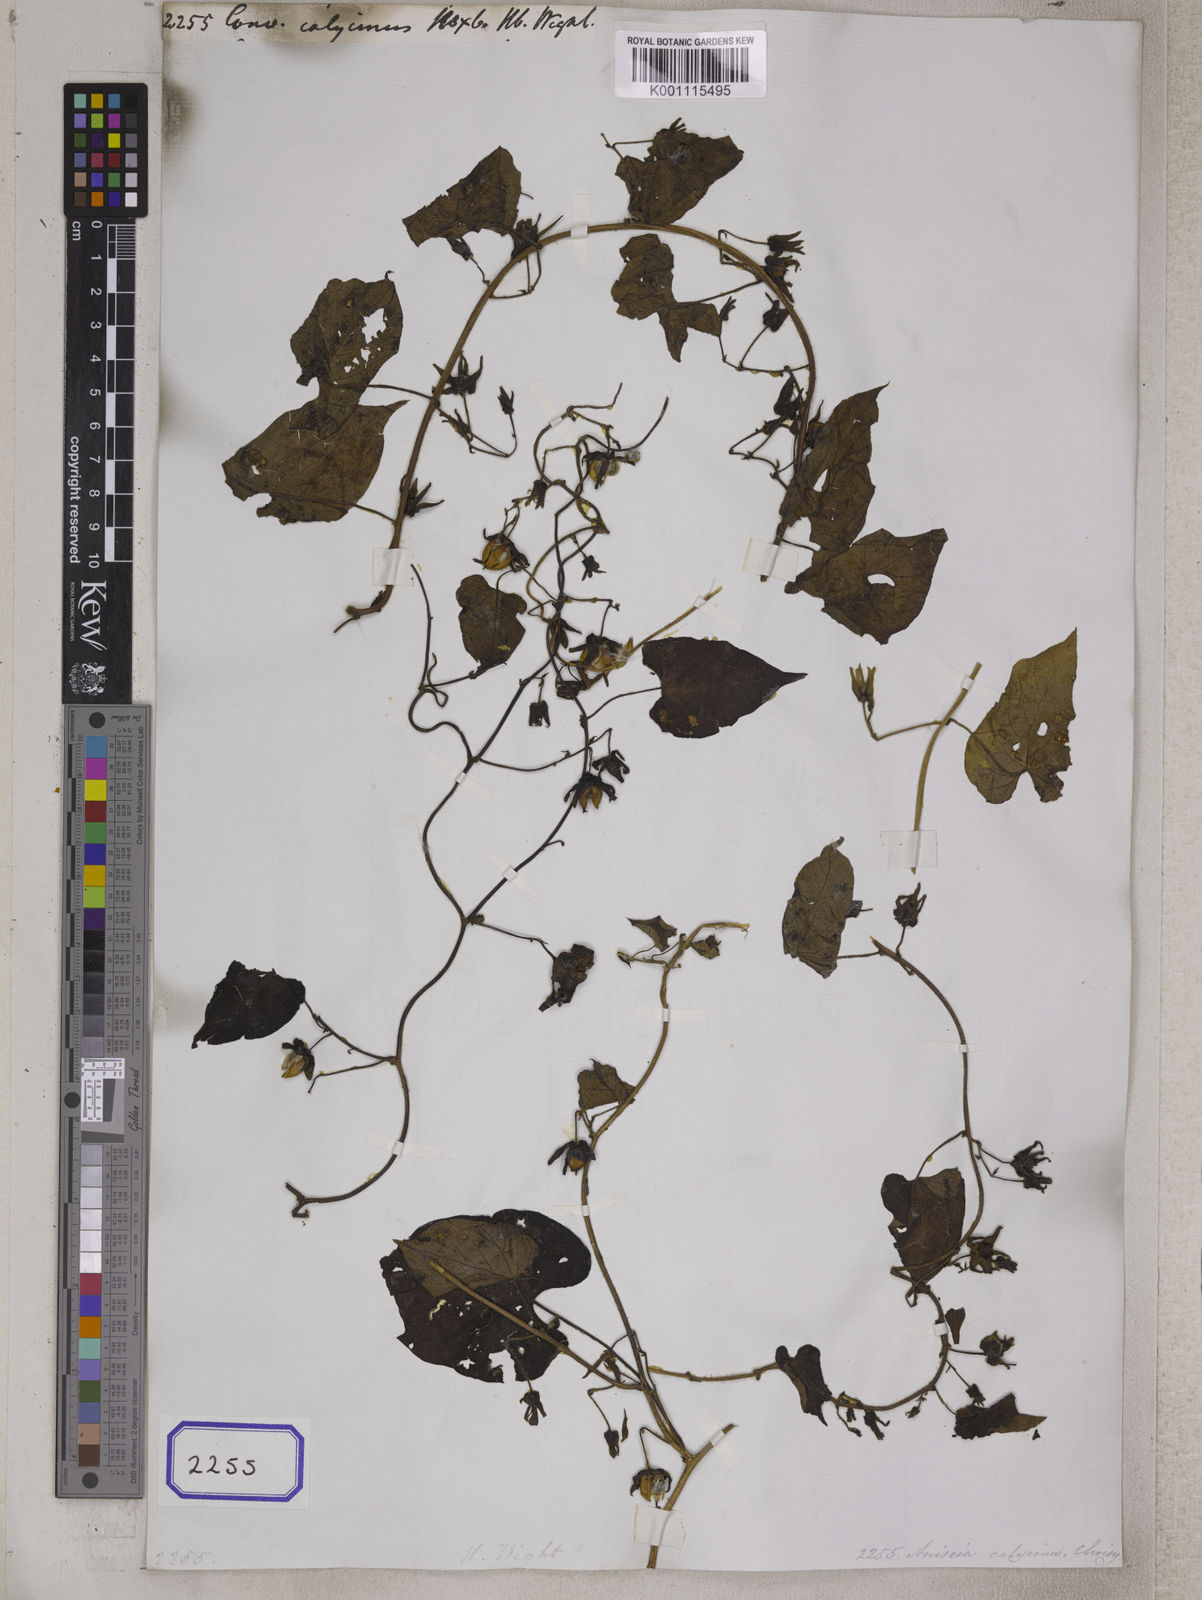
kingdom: Plantae
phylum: Tracheophyta
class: Magnoliopsida
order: Solanales
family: Convolvulaceae
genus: Ipomoea
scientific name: Ipomoea biflora
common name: Bellvine
